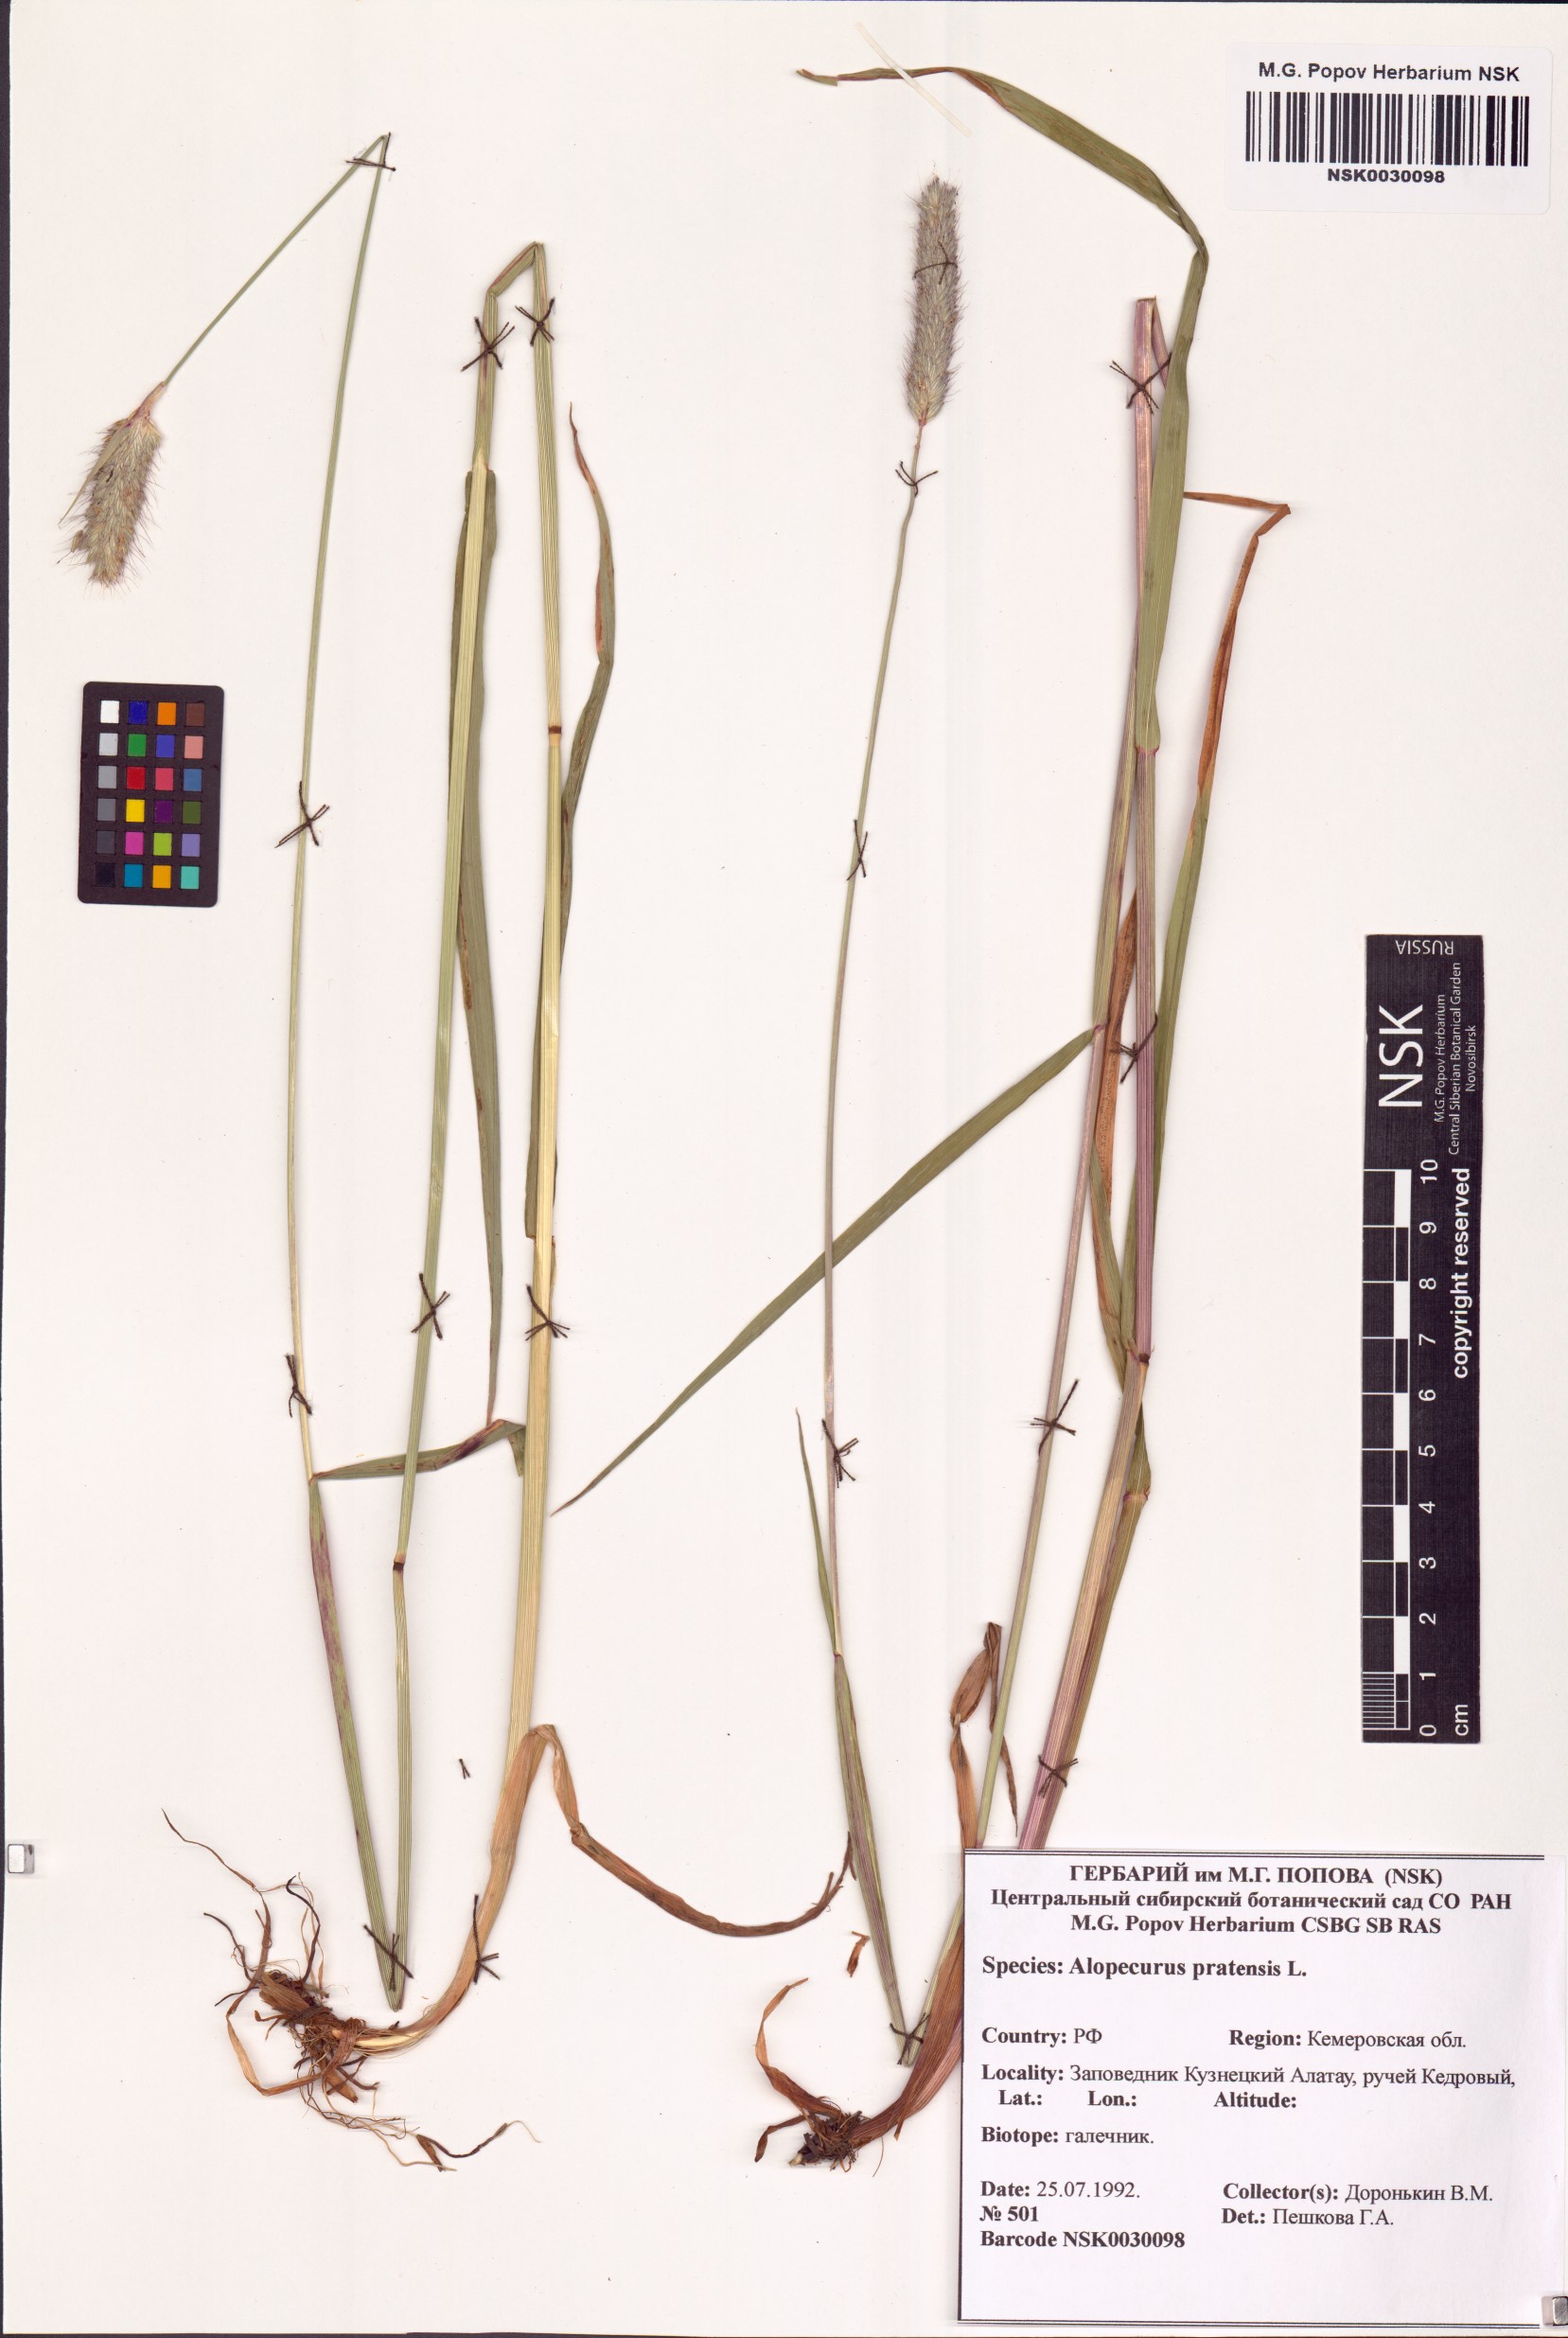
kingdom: Plantae
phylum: Tracheophyta
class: Liliopsida
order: Poales
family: Poaceae
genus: Alopecurus
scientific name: Alopecurus pratensis
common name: Meadow foxtail
